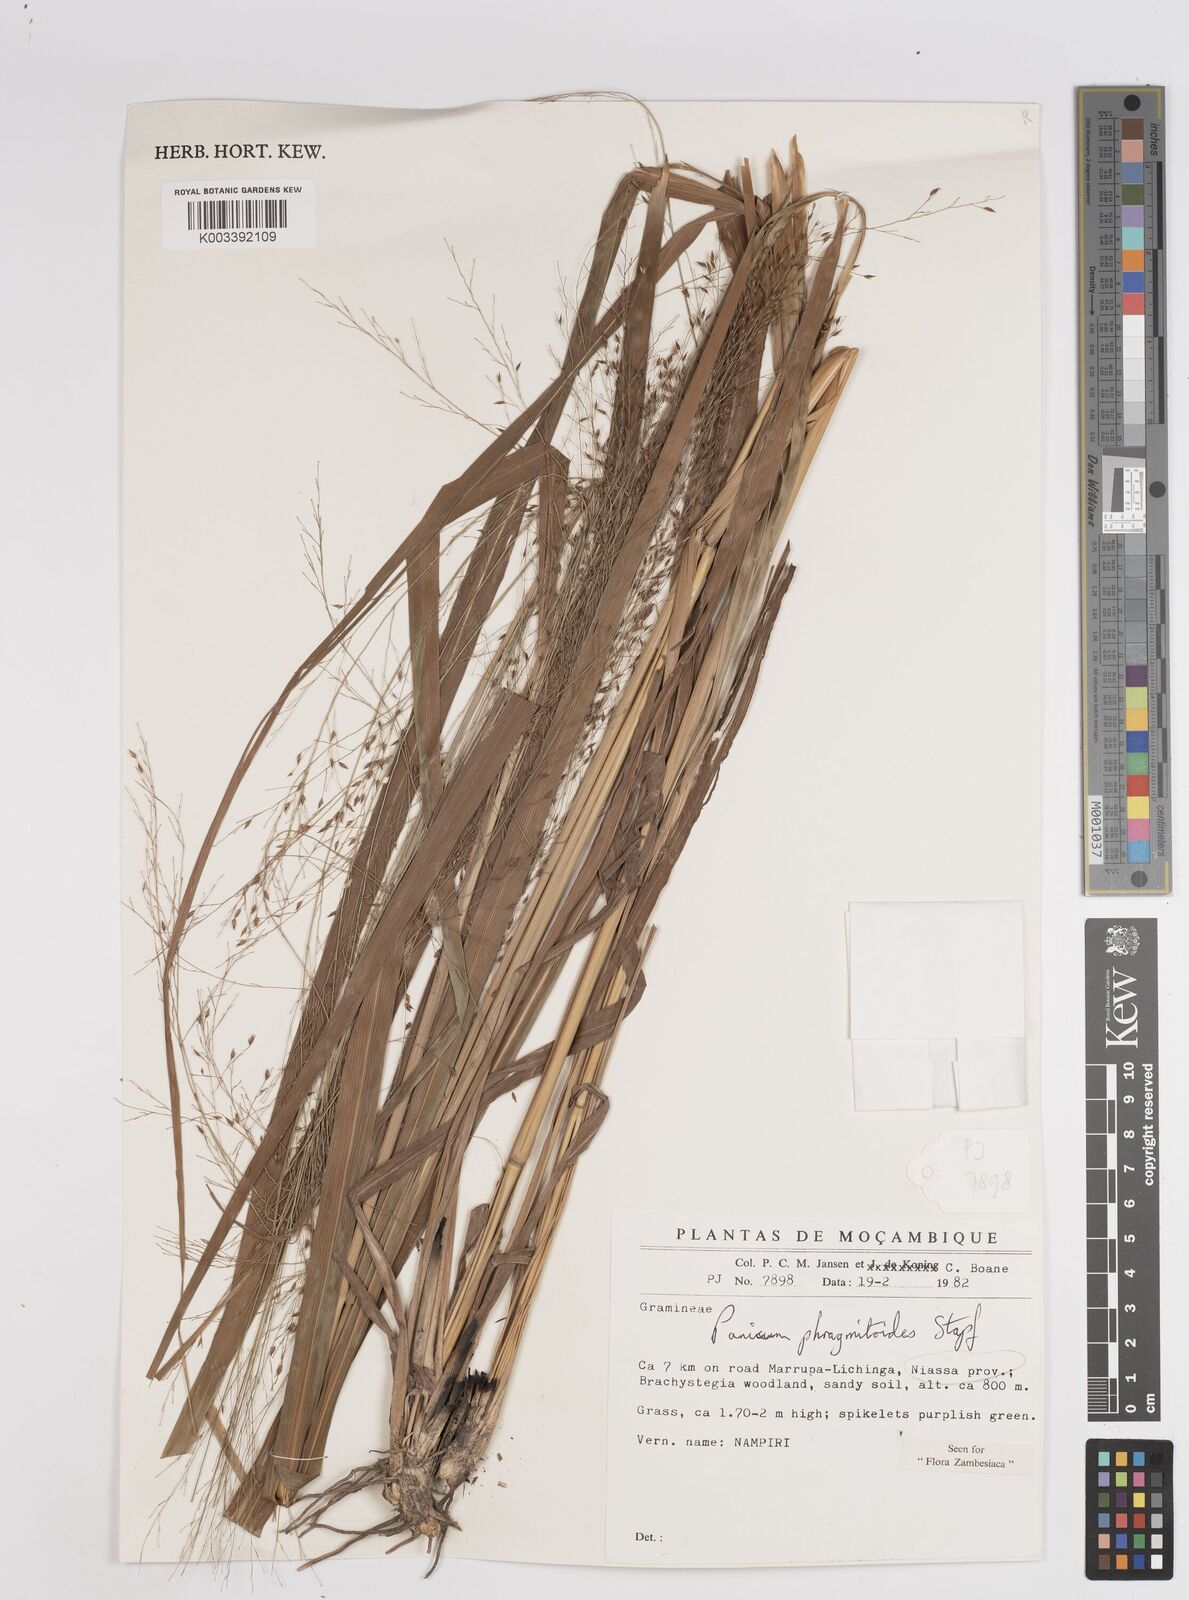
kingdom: Plantae
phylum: Tracheophyta
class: Liliopsida
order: Poales
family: Poaceae
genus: Panicum
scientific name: Panicum phragmitoides
